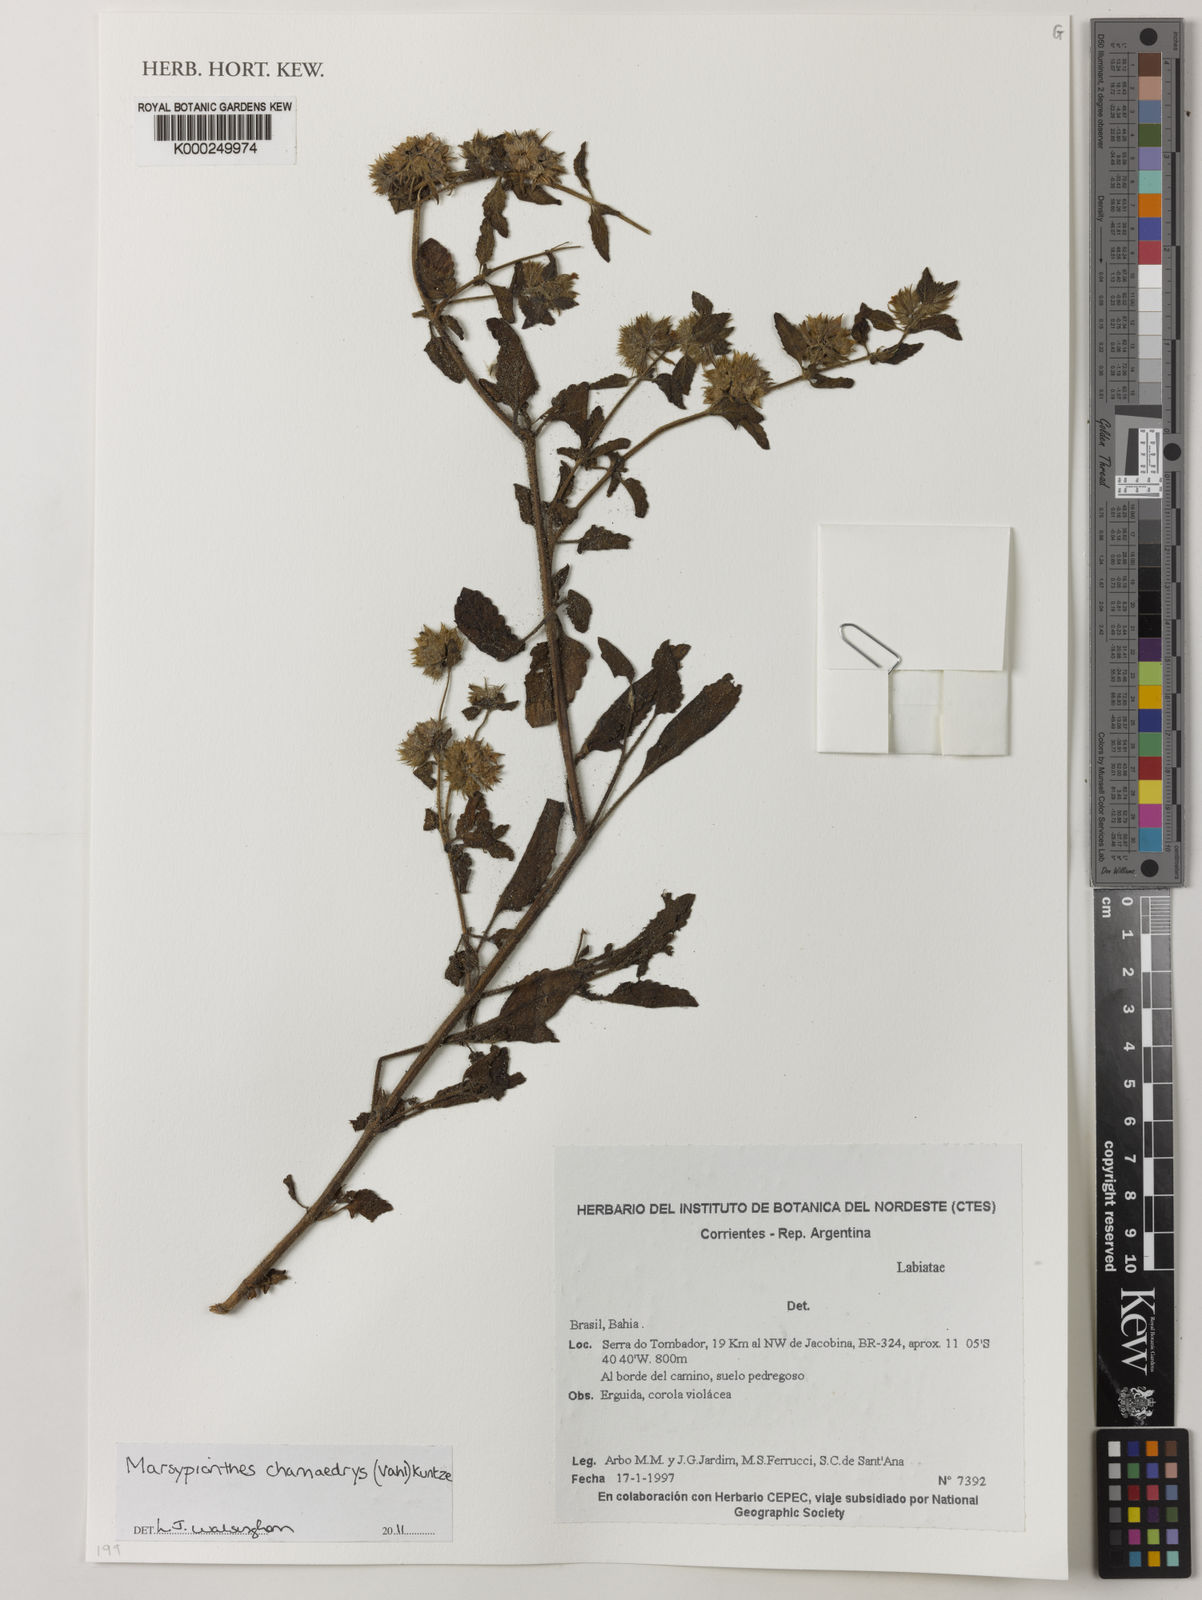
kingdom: Plantae
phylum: Tracheophyta
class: Magnoliopsida
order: Lamiales
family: Lamiaceae
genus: Marsypianthes
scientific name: Marsypianthes chamaedrys
